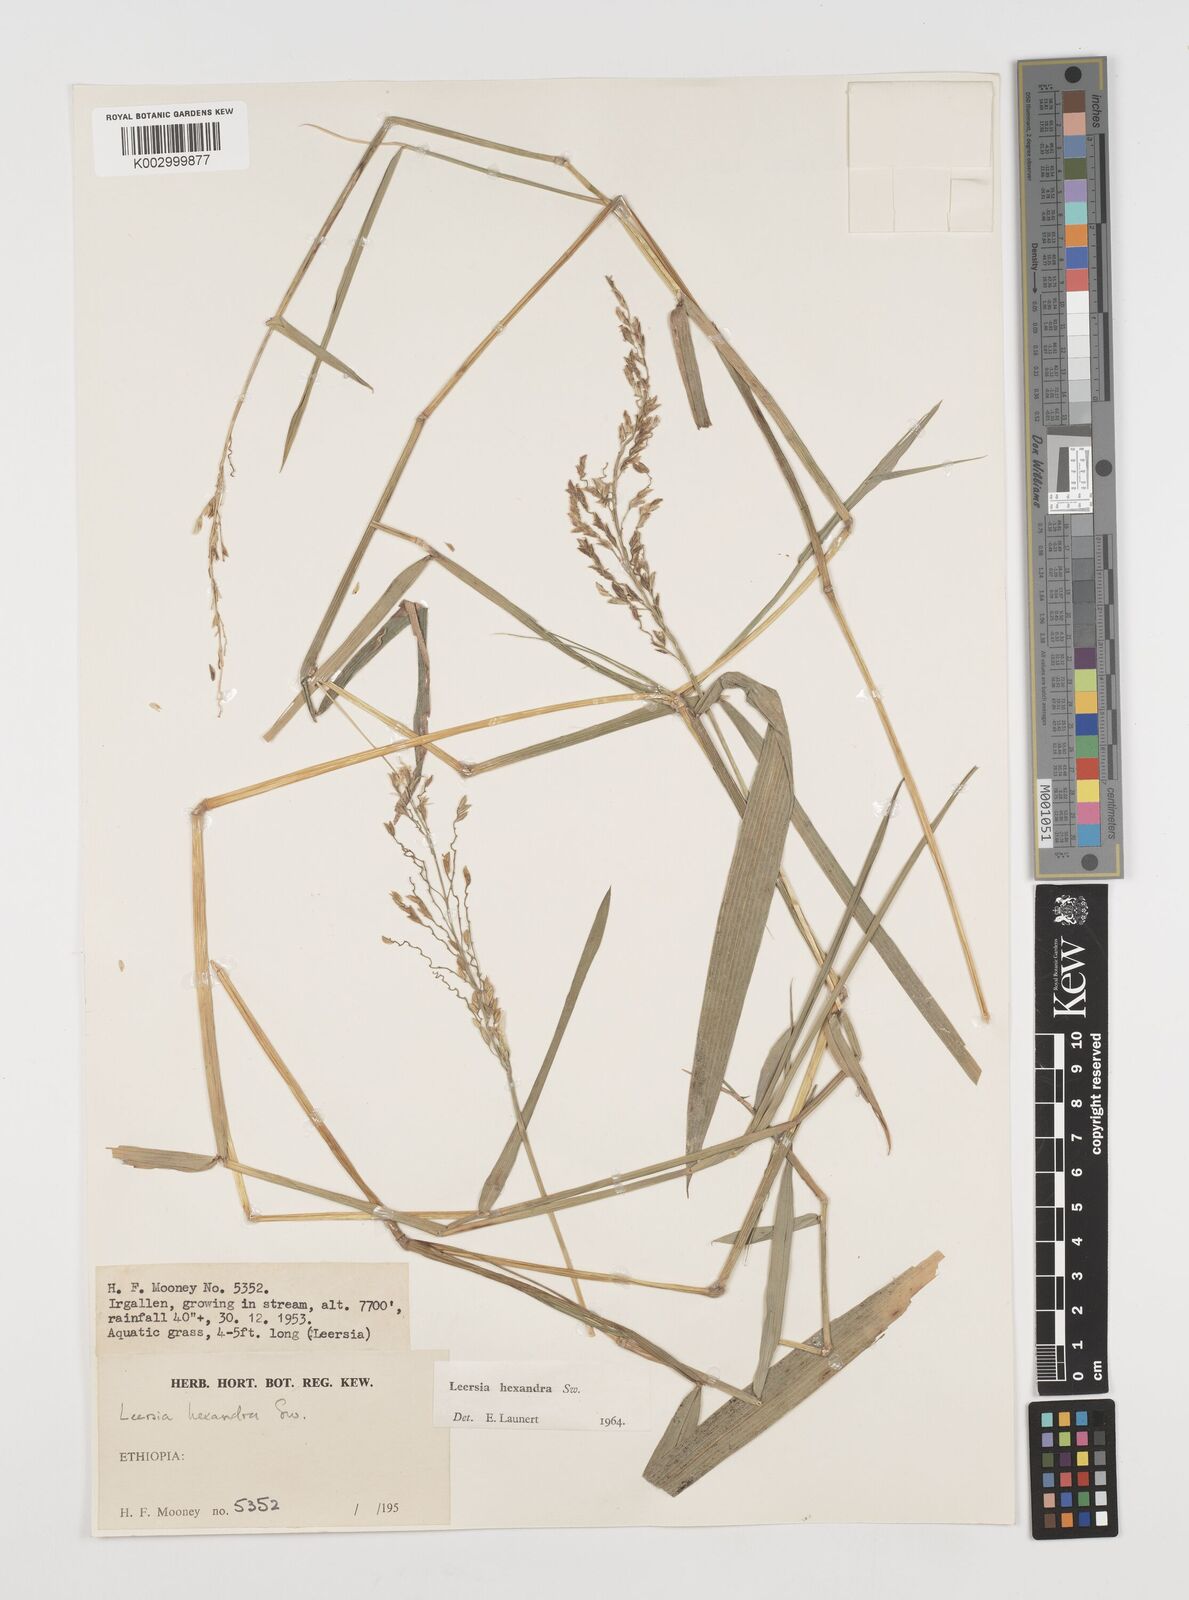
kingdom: Plantae
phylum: Tracheophyta
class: Liliopsida
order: Poales
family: Poaceae
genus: Leersia
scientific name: Leersia hexandra
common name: Southern cut grass
